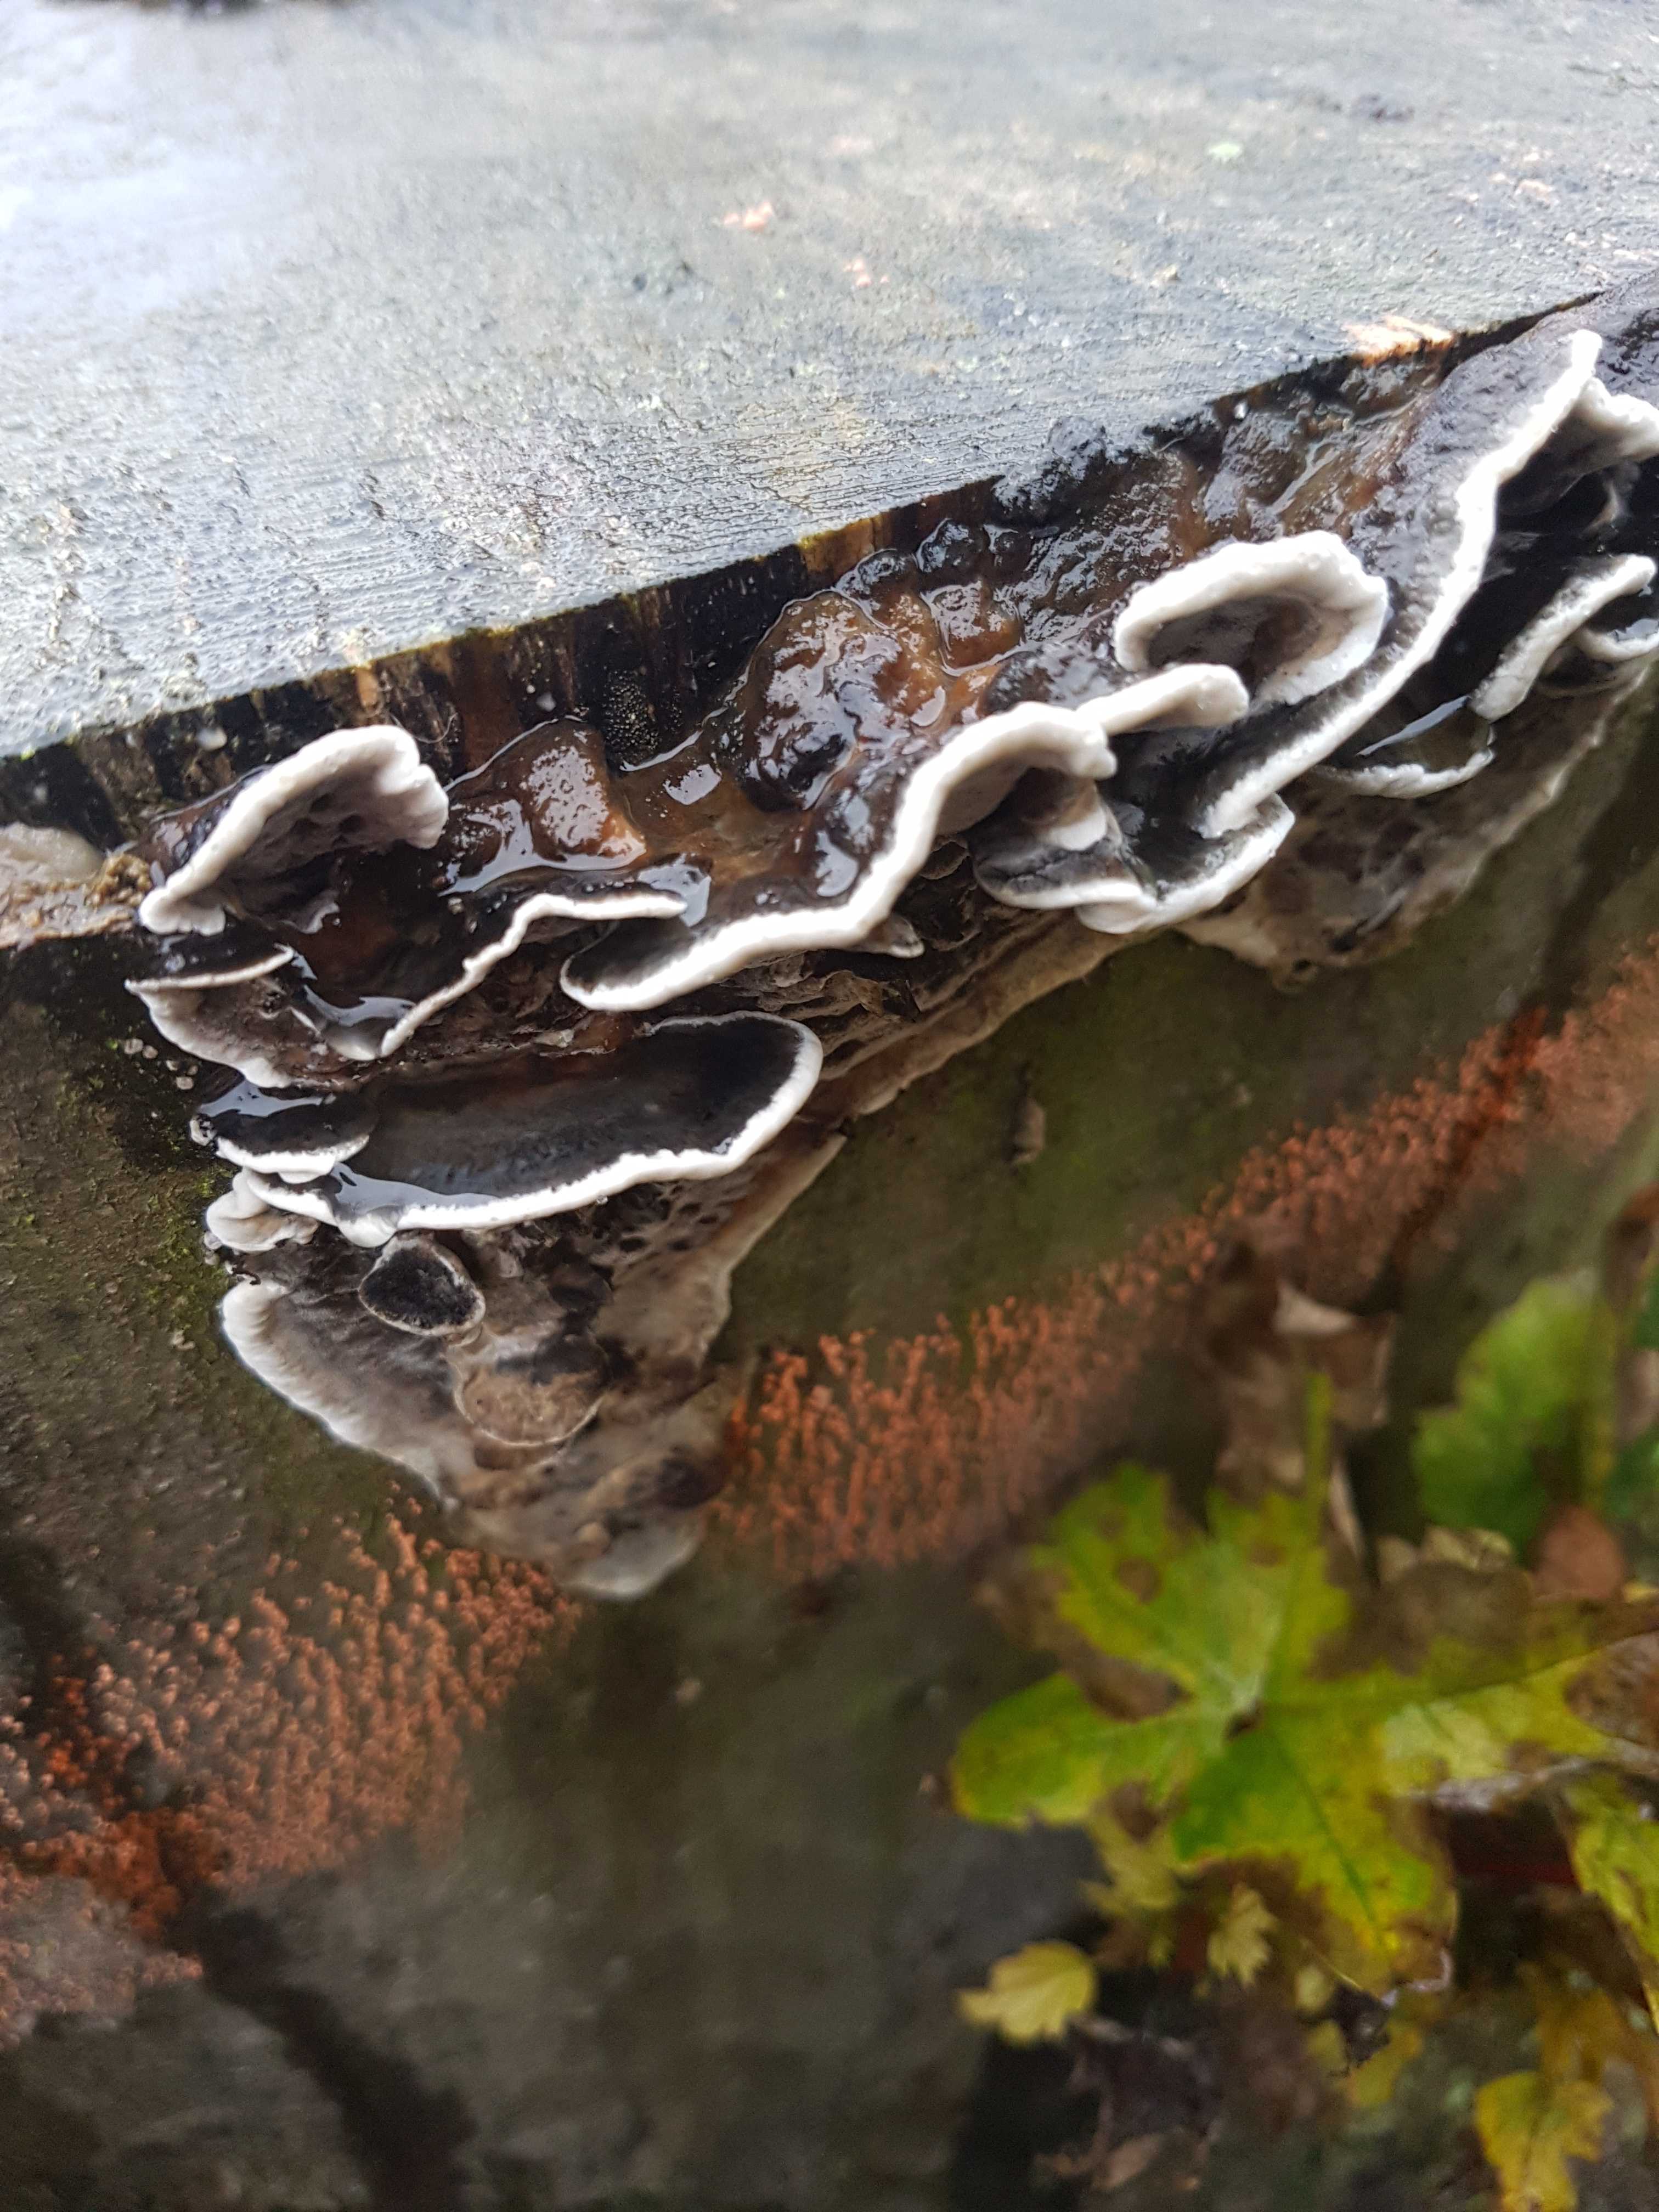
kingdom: Fungi
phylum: Basidiomycota
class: Agaricomycetes
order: Polyporales
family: Phanerochaetaceae
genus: Bjerkandera
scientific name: Bjerkandera adusta
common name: sveden sodporesvamp
